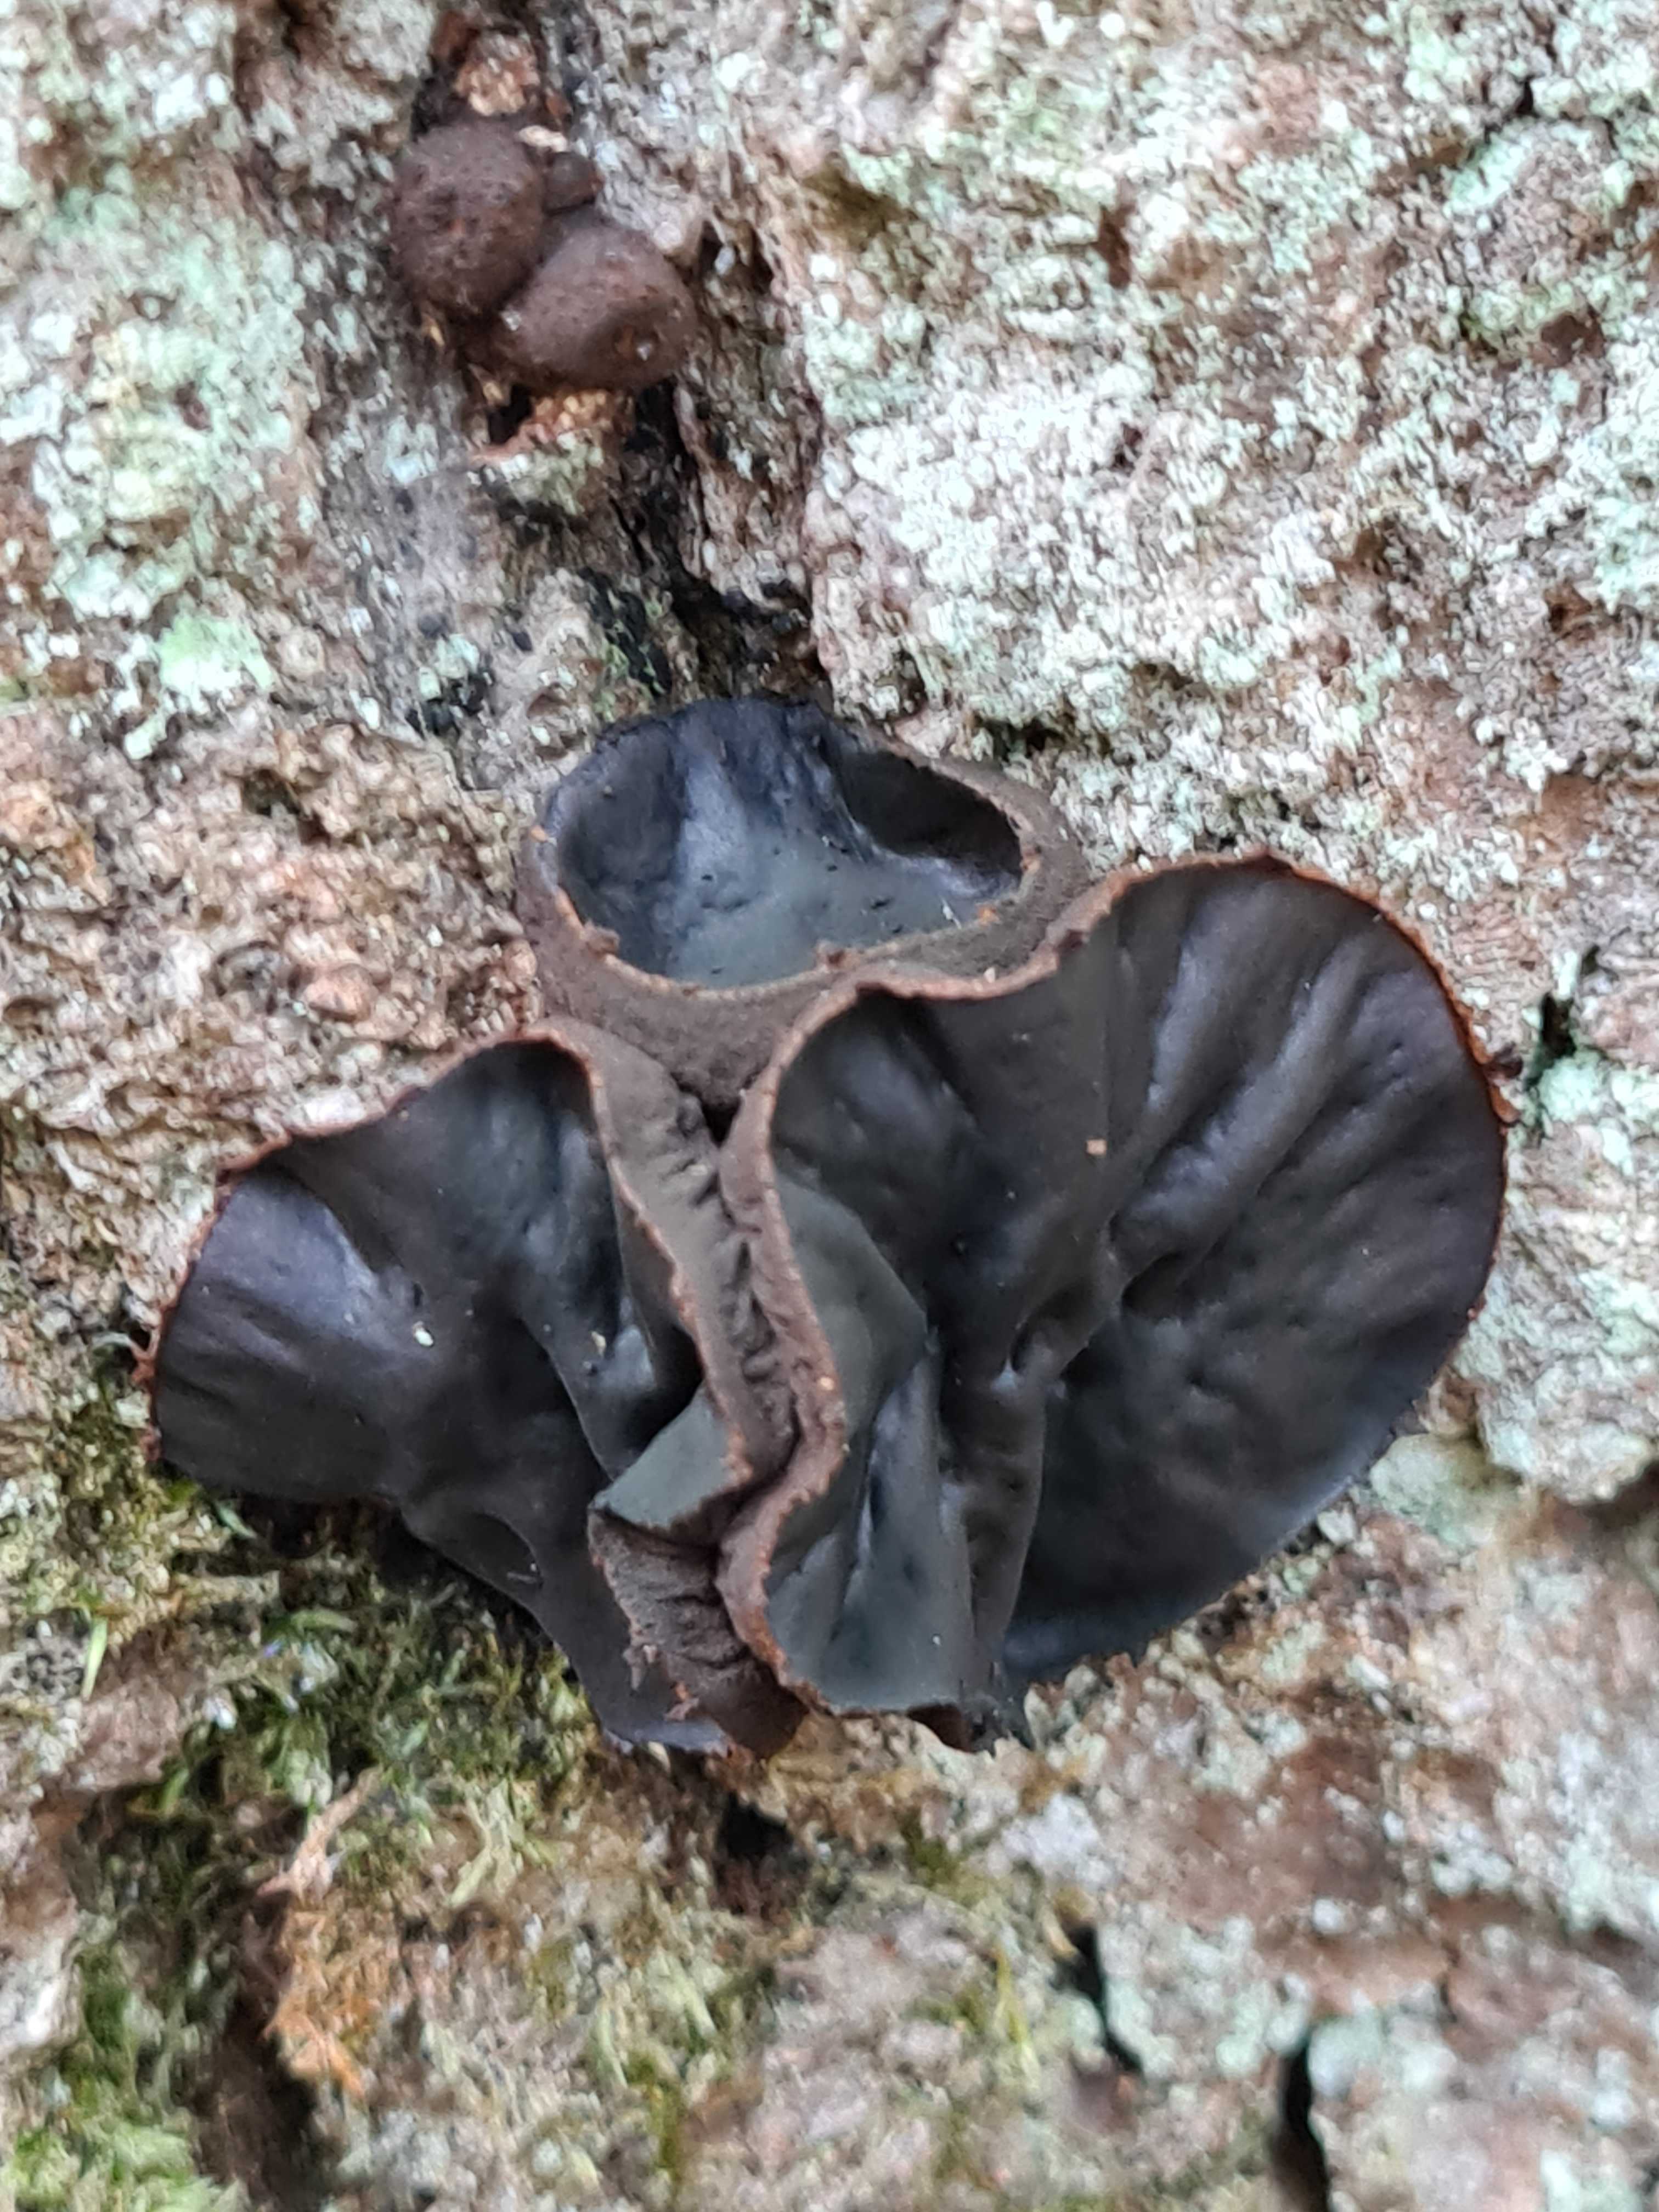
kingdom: Fungi
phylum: Ascomycota
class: Leotiomycetes
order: Phacidiales
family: Phacidiaceae
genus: Bulgaria
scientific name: Bulgaria inquinans
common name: afsmittende topsvamp
